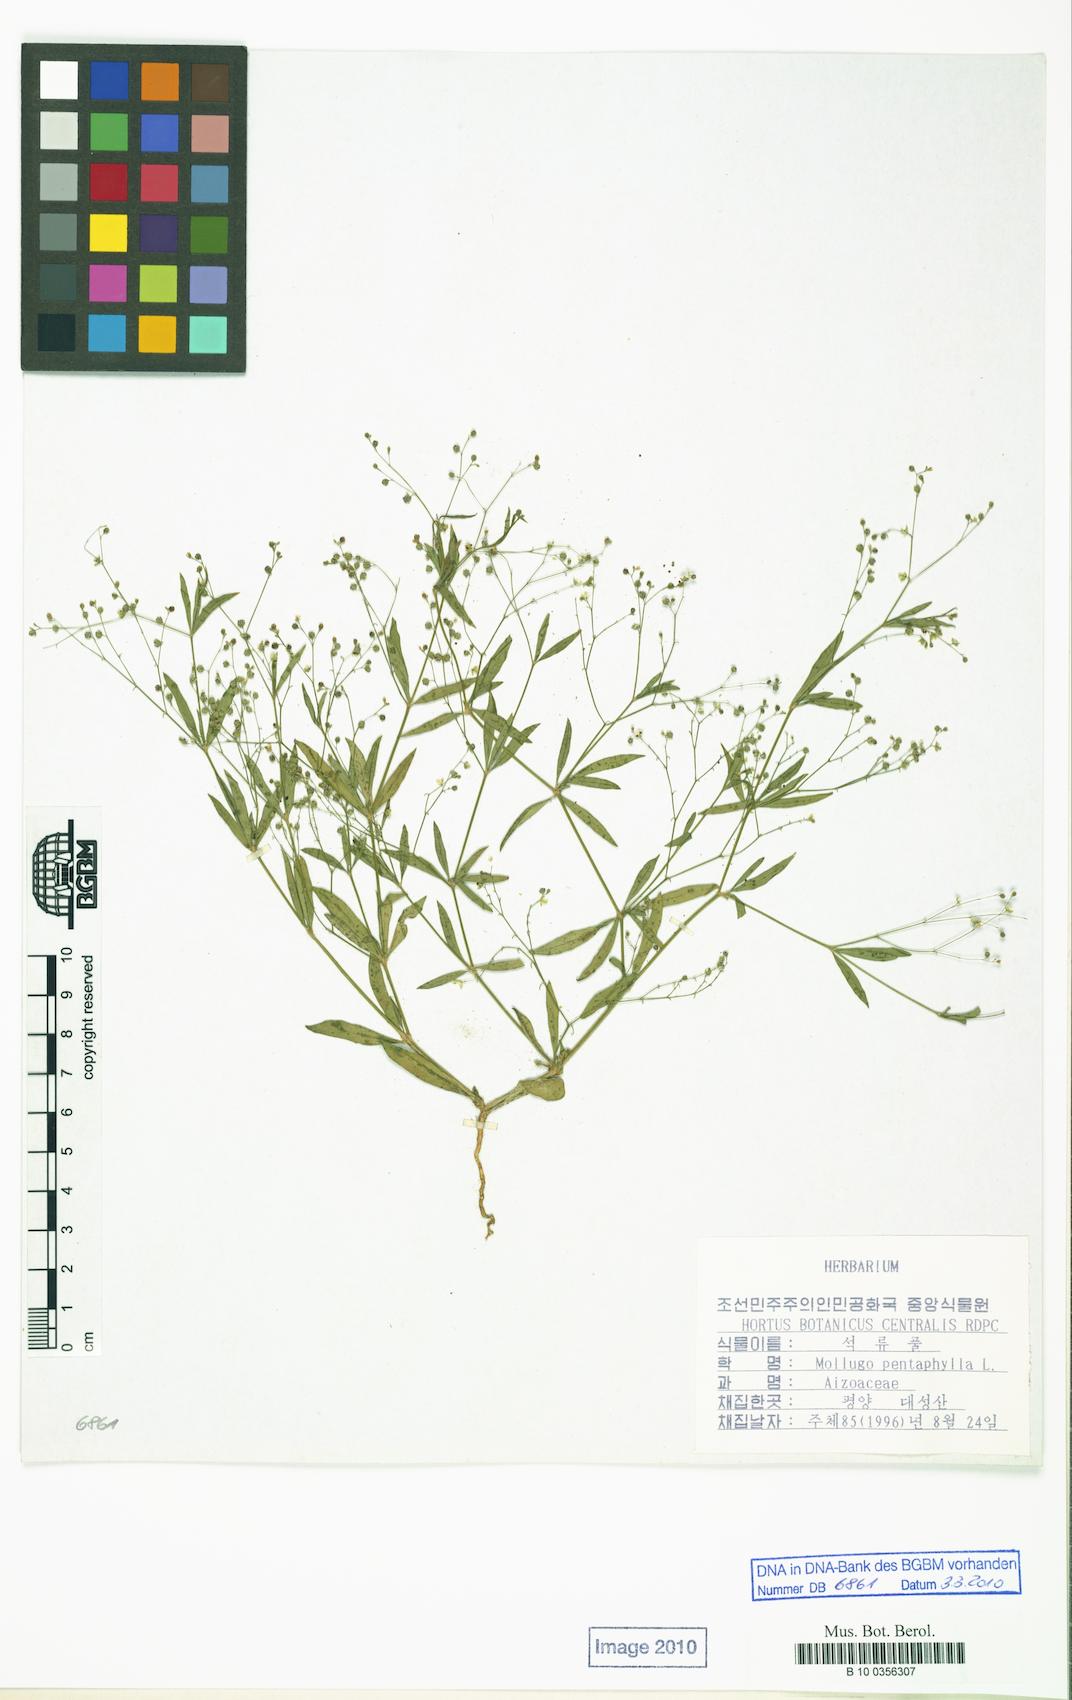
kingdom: Plantae
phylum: Tracheophyta
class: Magnoliopsida
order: Caryophyllales
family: Molluginaceae
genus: Trigastrotheca
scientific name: Trigastrotheca pentaphylla
